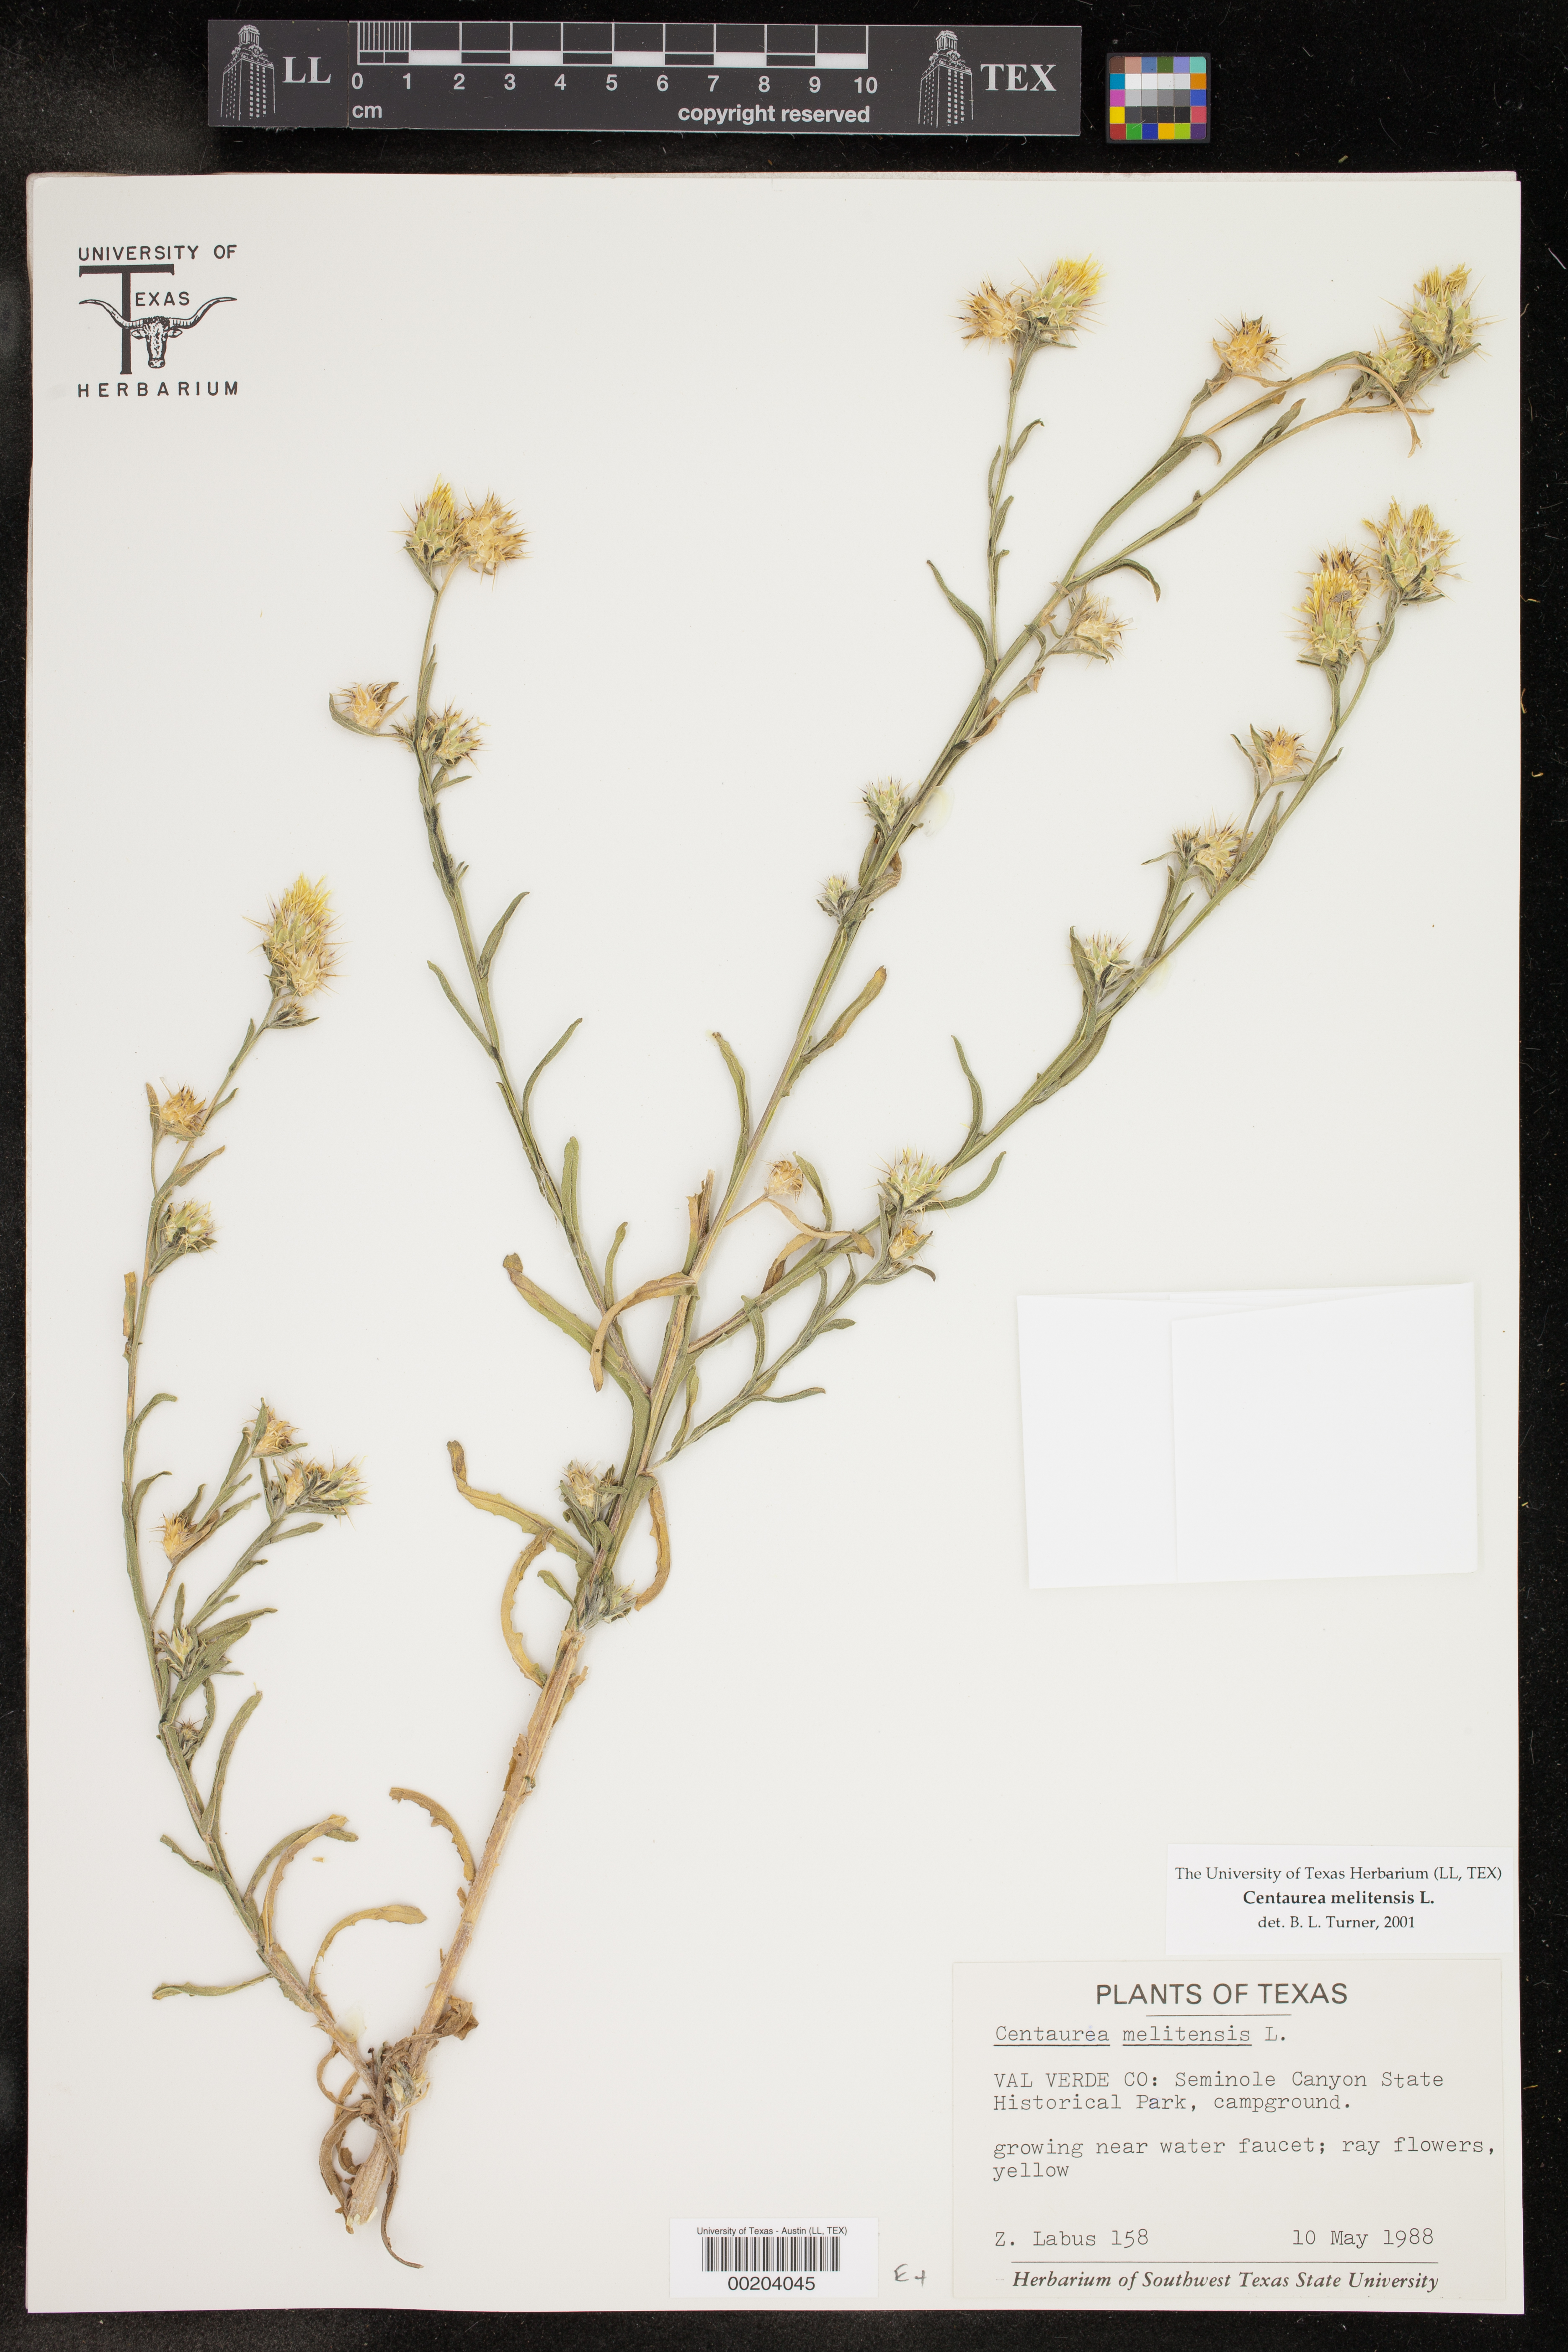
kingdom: Plantae
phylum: Tracheophyta
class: Magnoliopsida
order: Asterales
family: Asteraceae
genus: Centaurea
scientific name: Centaurea melitensis
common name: Maltese star-thistle
